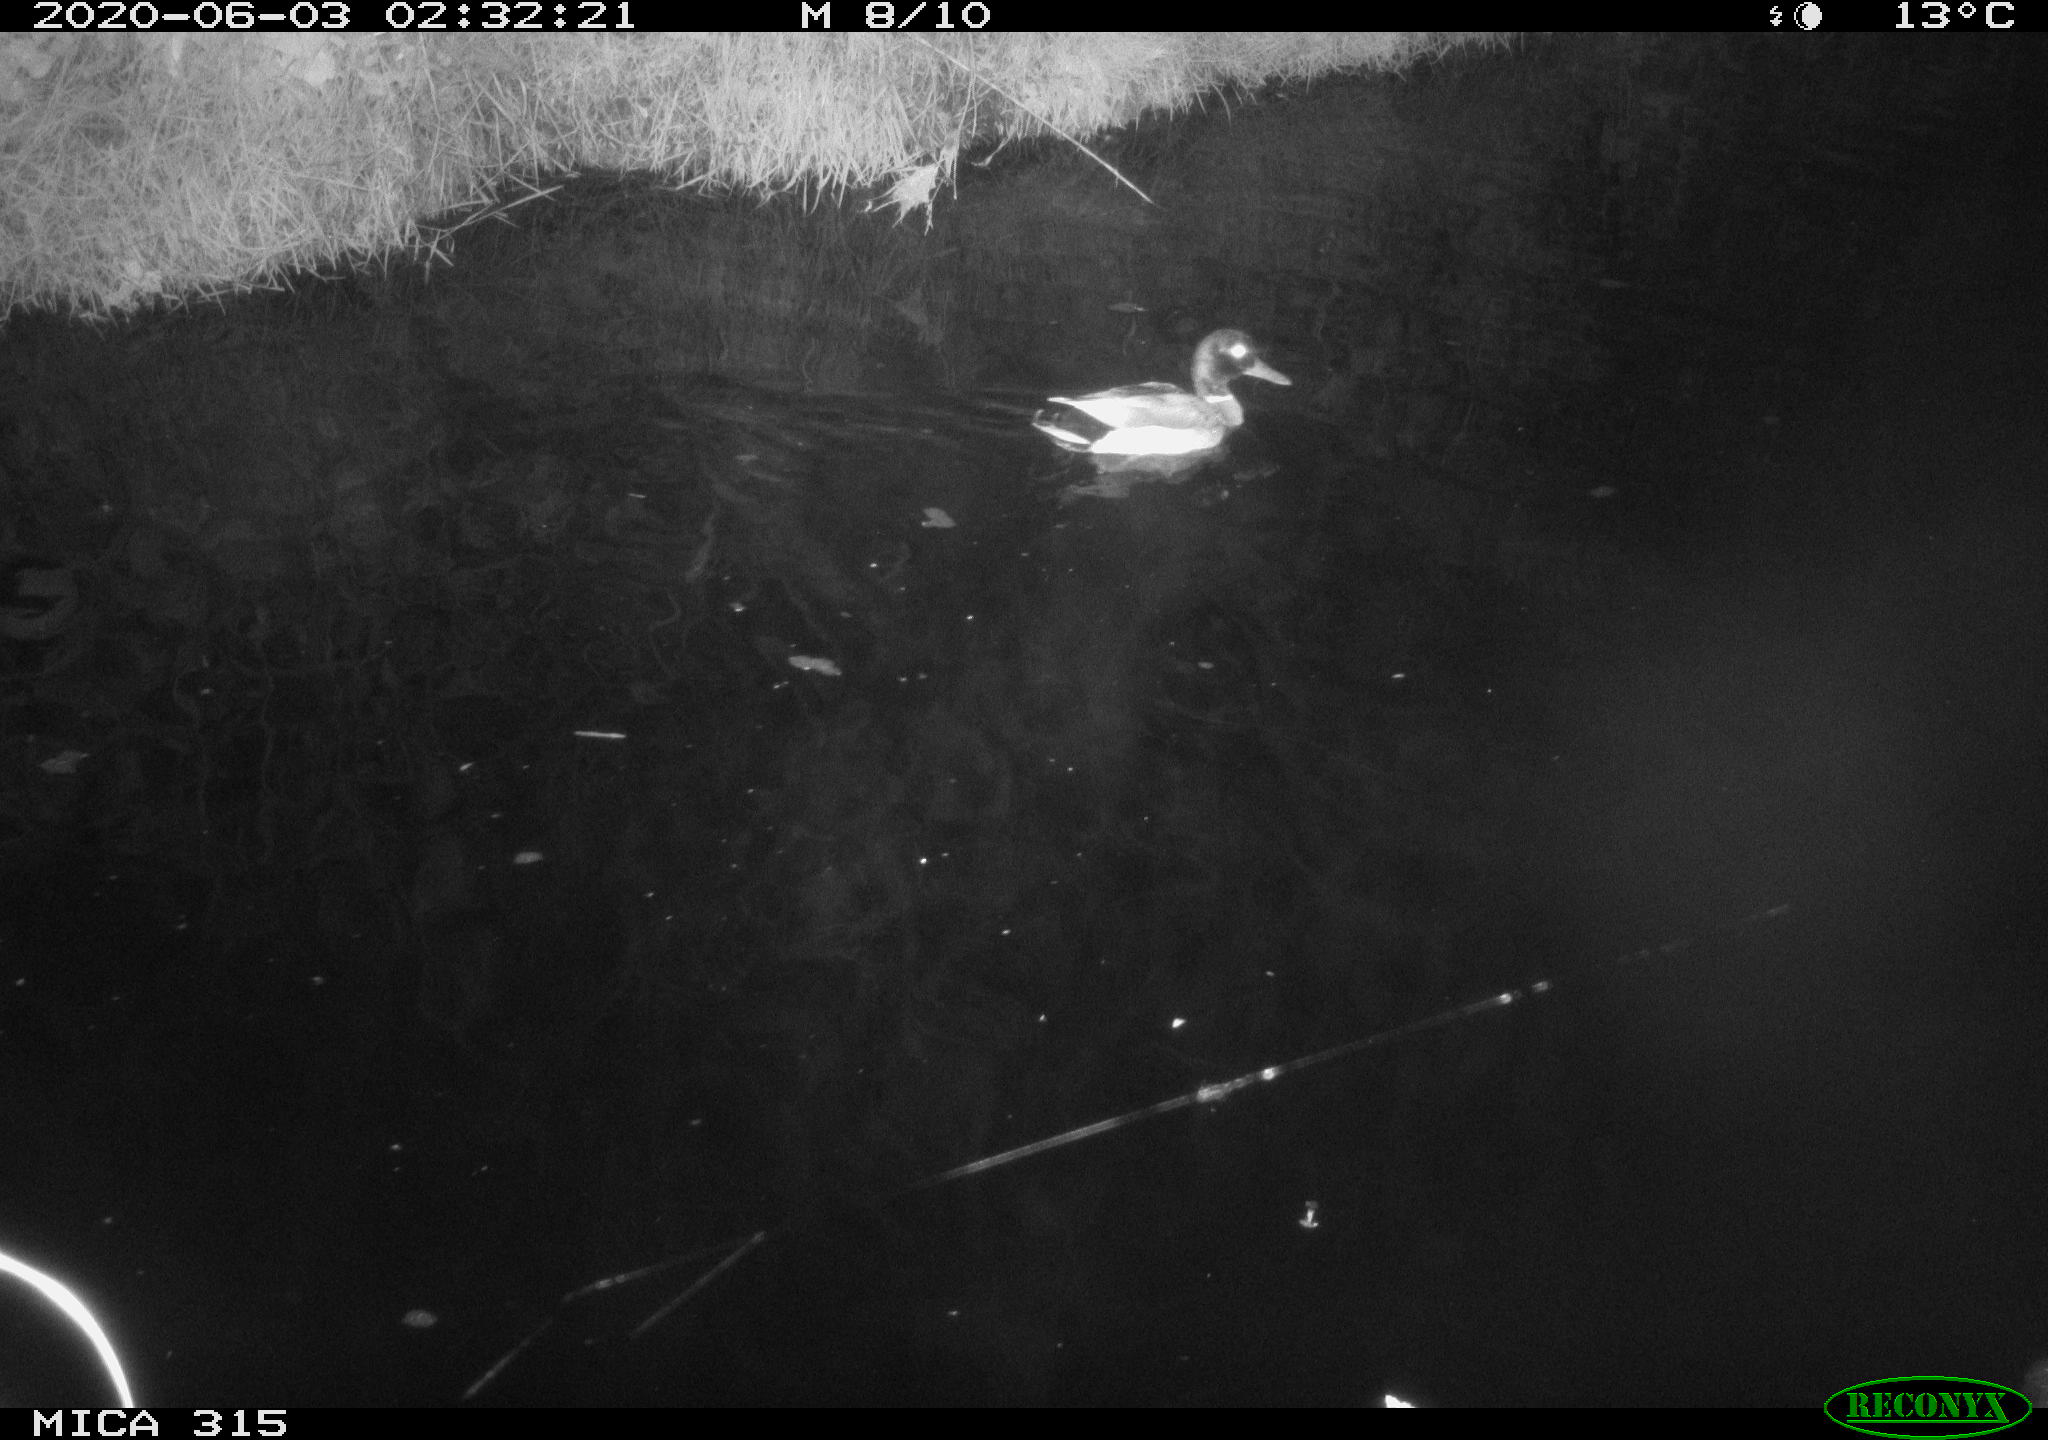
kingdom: Animalia
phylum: Chordata
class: Aves
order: Anseriformes
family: Anatidae
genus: Anas
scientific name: Anas platyrhynchos
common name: Mallard
